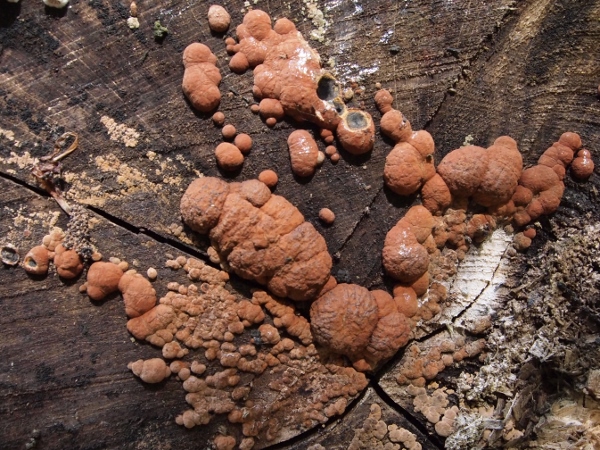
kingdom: Fungi
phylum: Ascomycota
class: Sordariomycetes
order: Xylariales
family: Hypoxylaceae
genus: Hypoxylon
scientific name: Hypoxylon fragiforme
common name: kuljordbær
